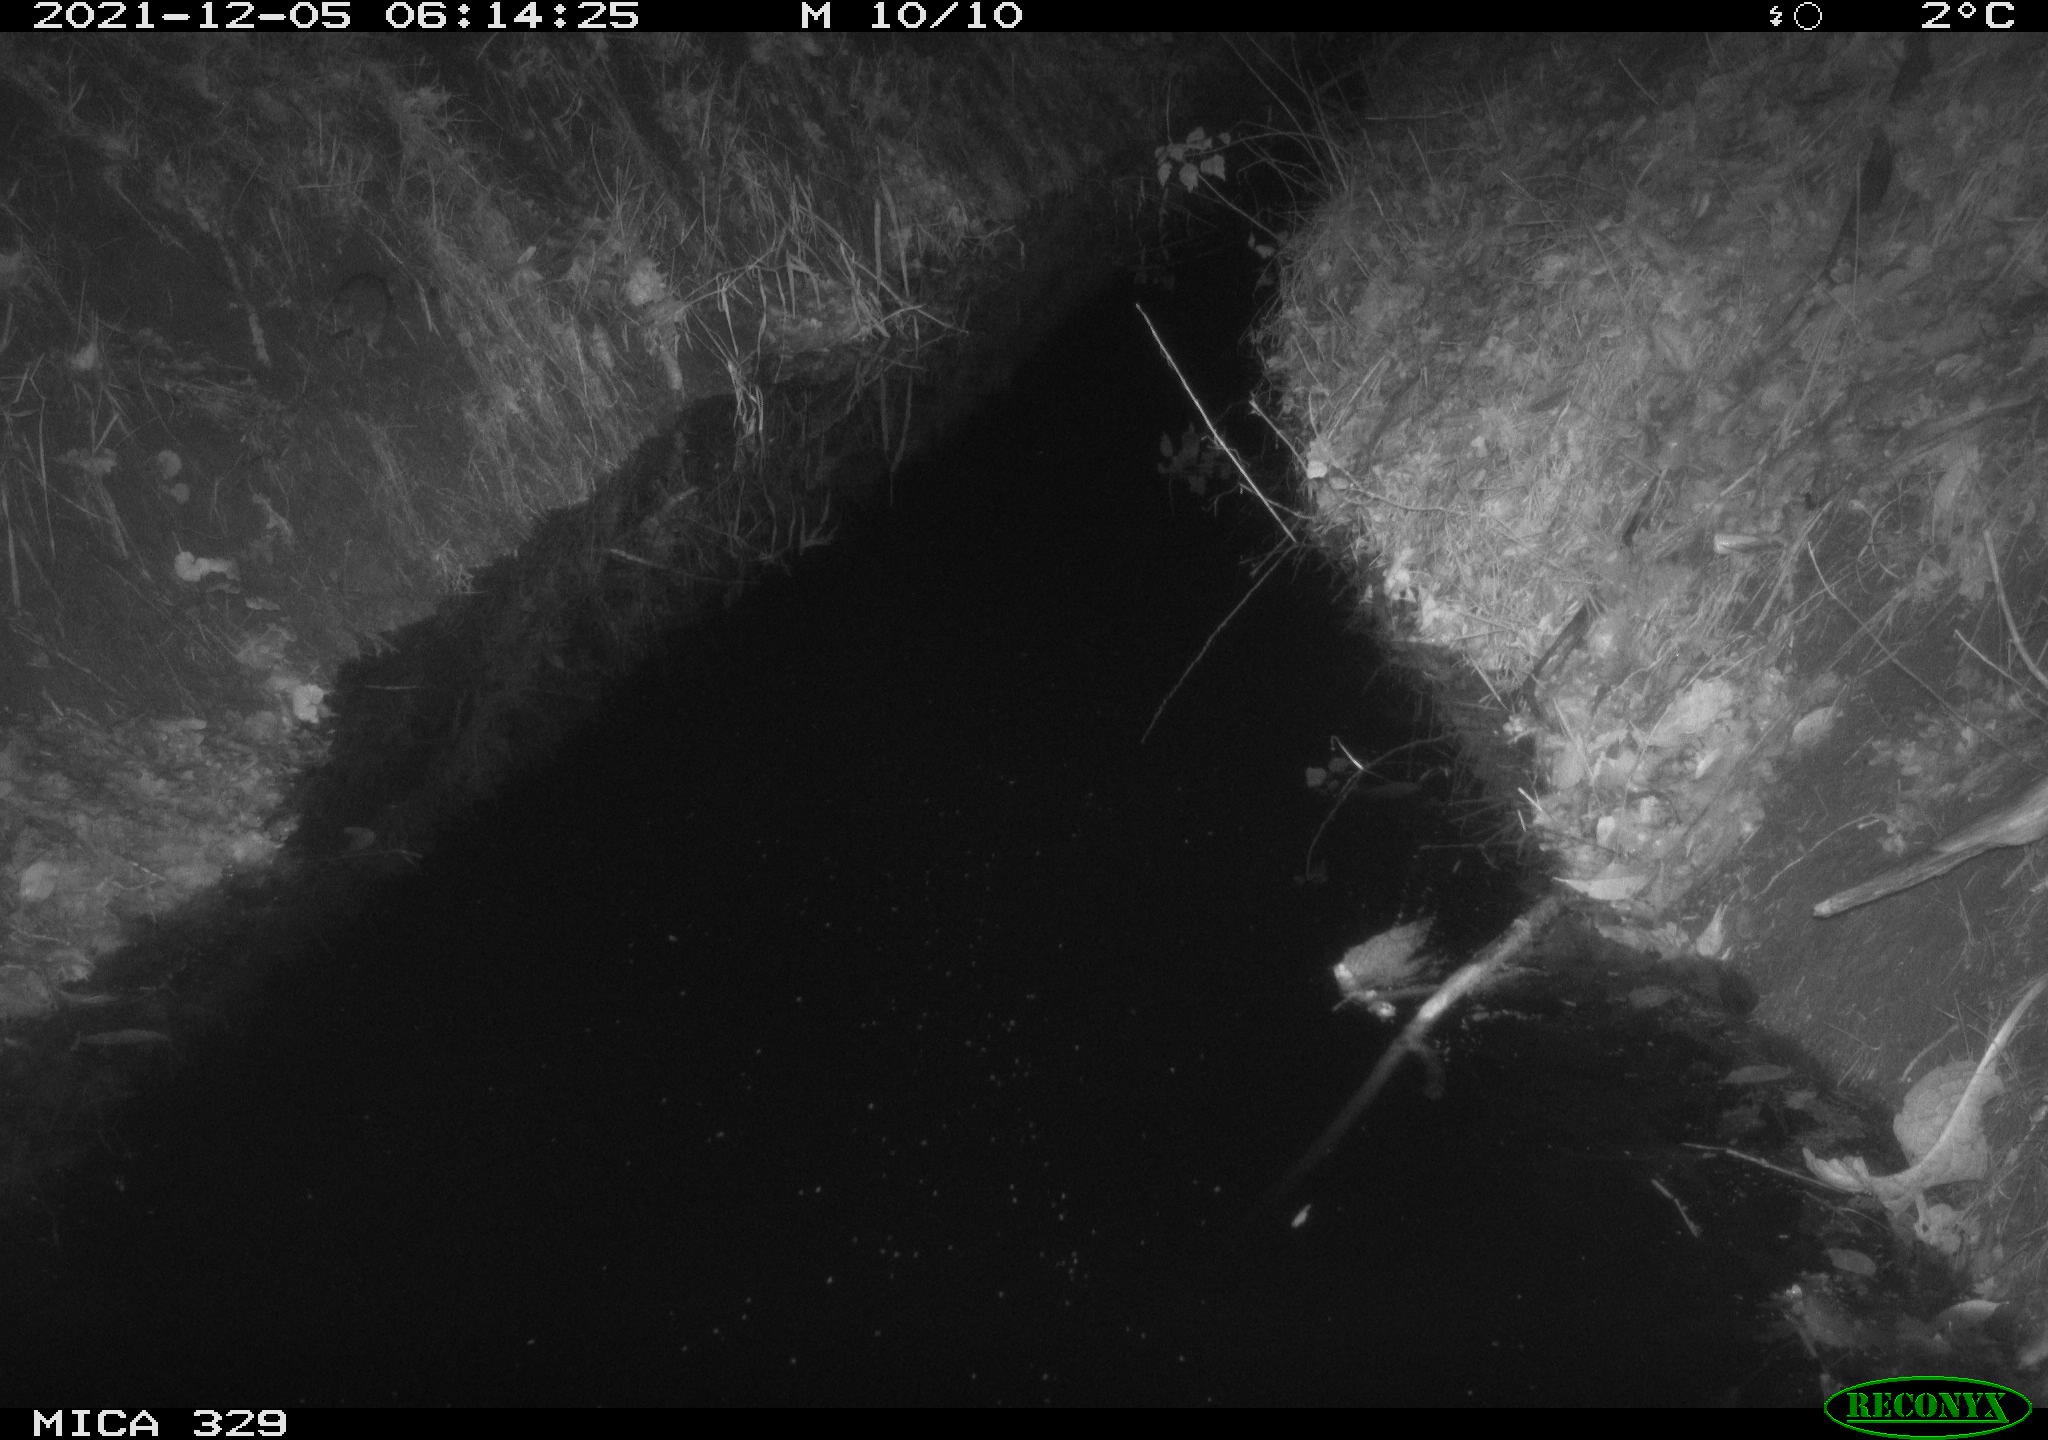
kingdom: Animalia
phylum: Chordata
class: Mammalia
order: Rodentia
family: Muridae
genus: Rattus
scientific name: Rattus norvegicus
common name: Brown rat
